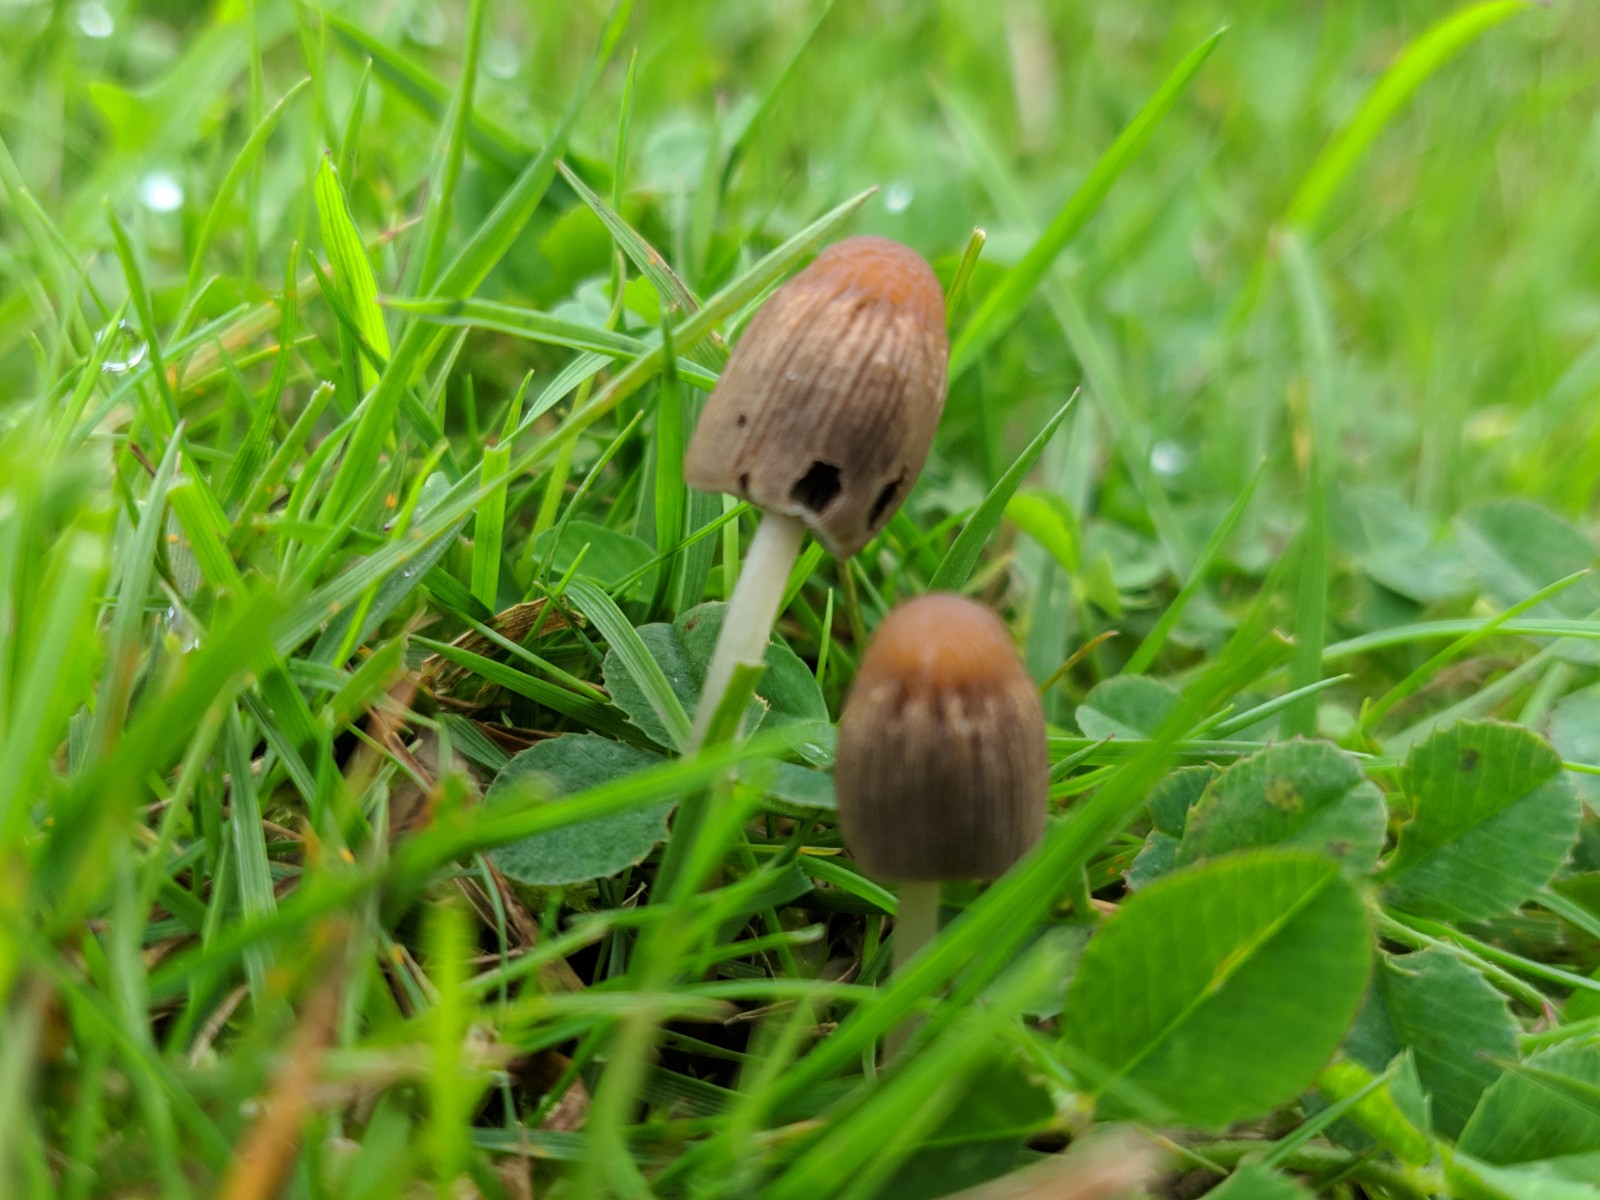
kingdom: Fungi
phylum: Basidiomycota
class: Agaricomycetes
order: Agaricales
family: Psathyrellaceae
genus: Parasola
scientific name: Parasola
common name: hjulhat
